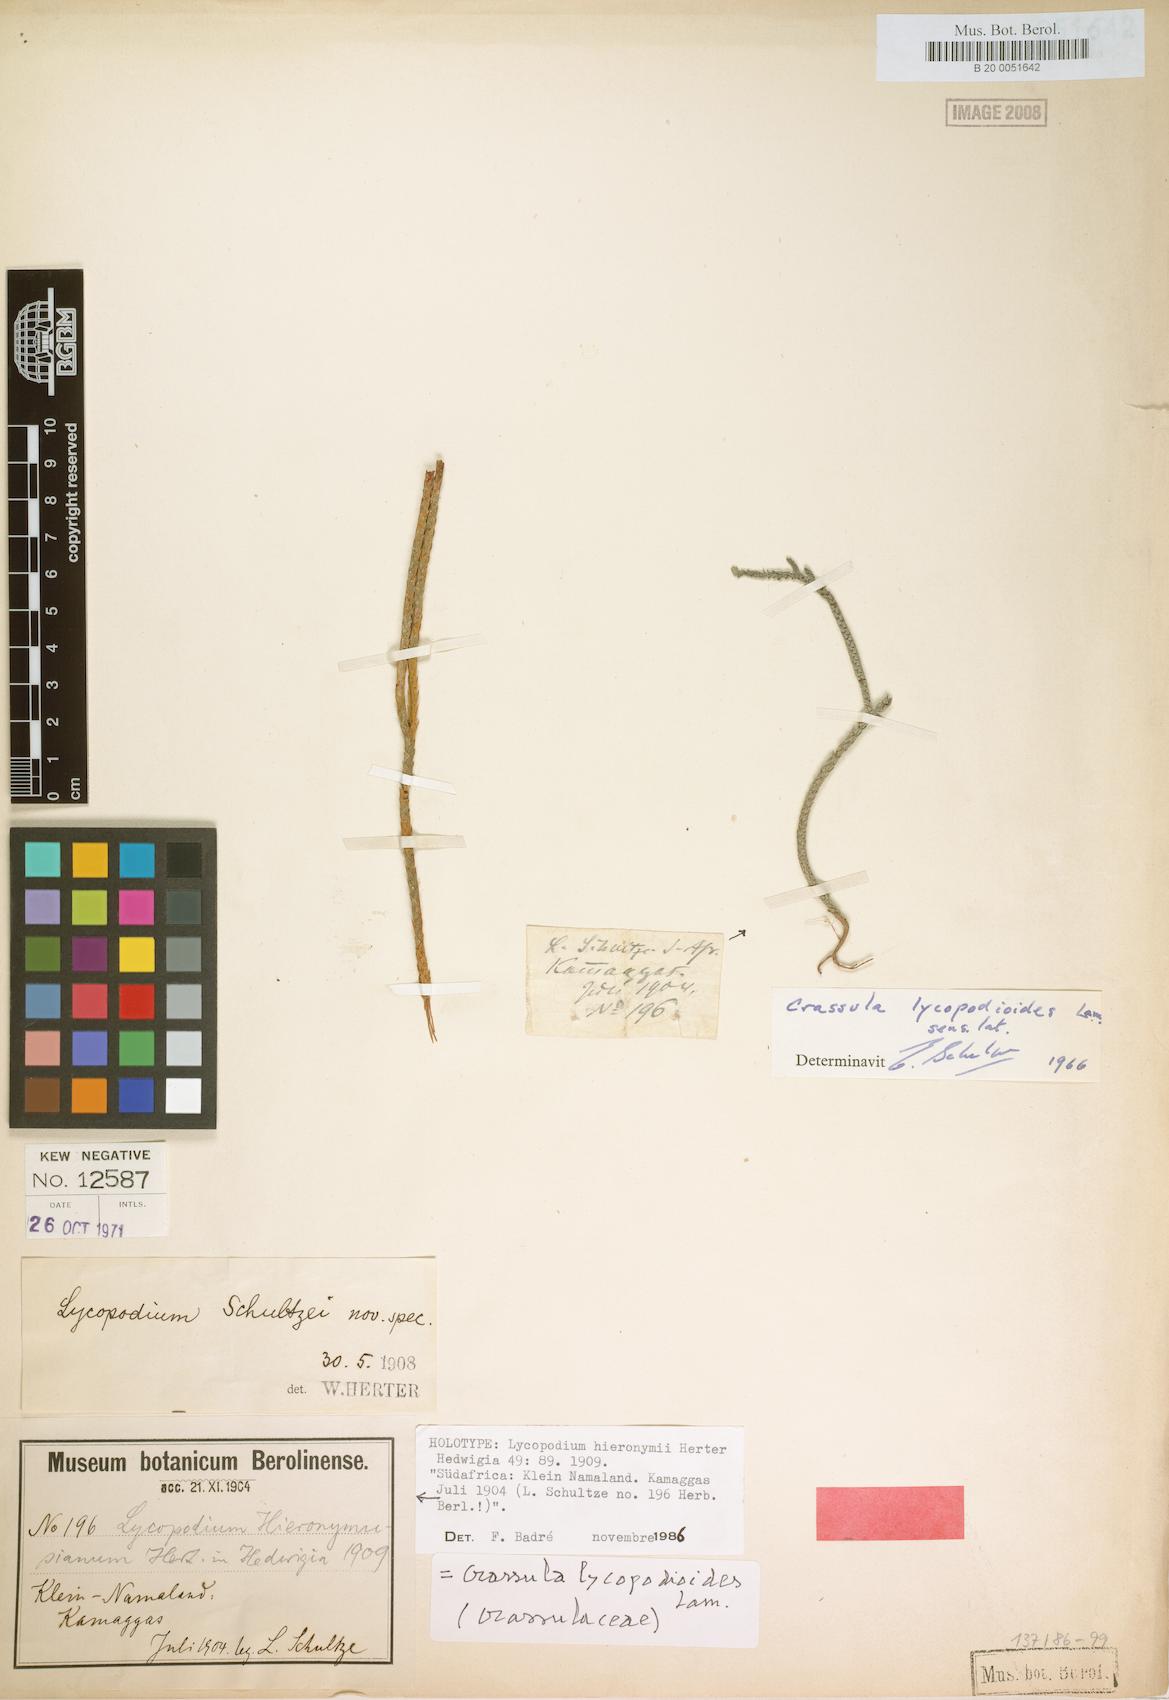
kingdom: Plantae
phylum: Tracheophyta
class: Lycopodiopsida
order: Lycopodiales
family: Lycopodiaceae
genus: Lycopodium
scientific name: Lycopodium hieronymi
